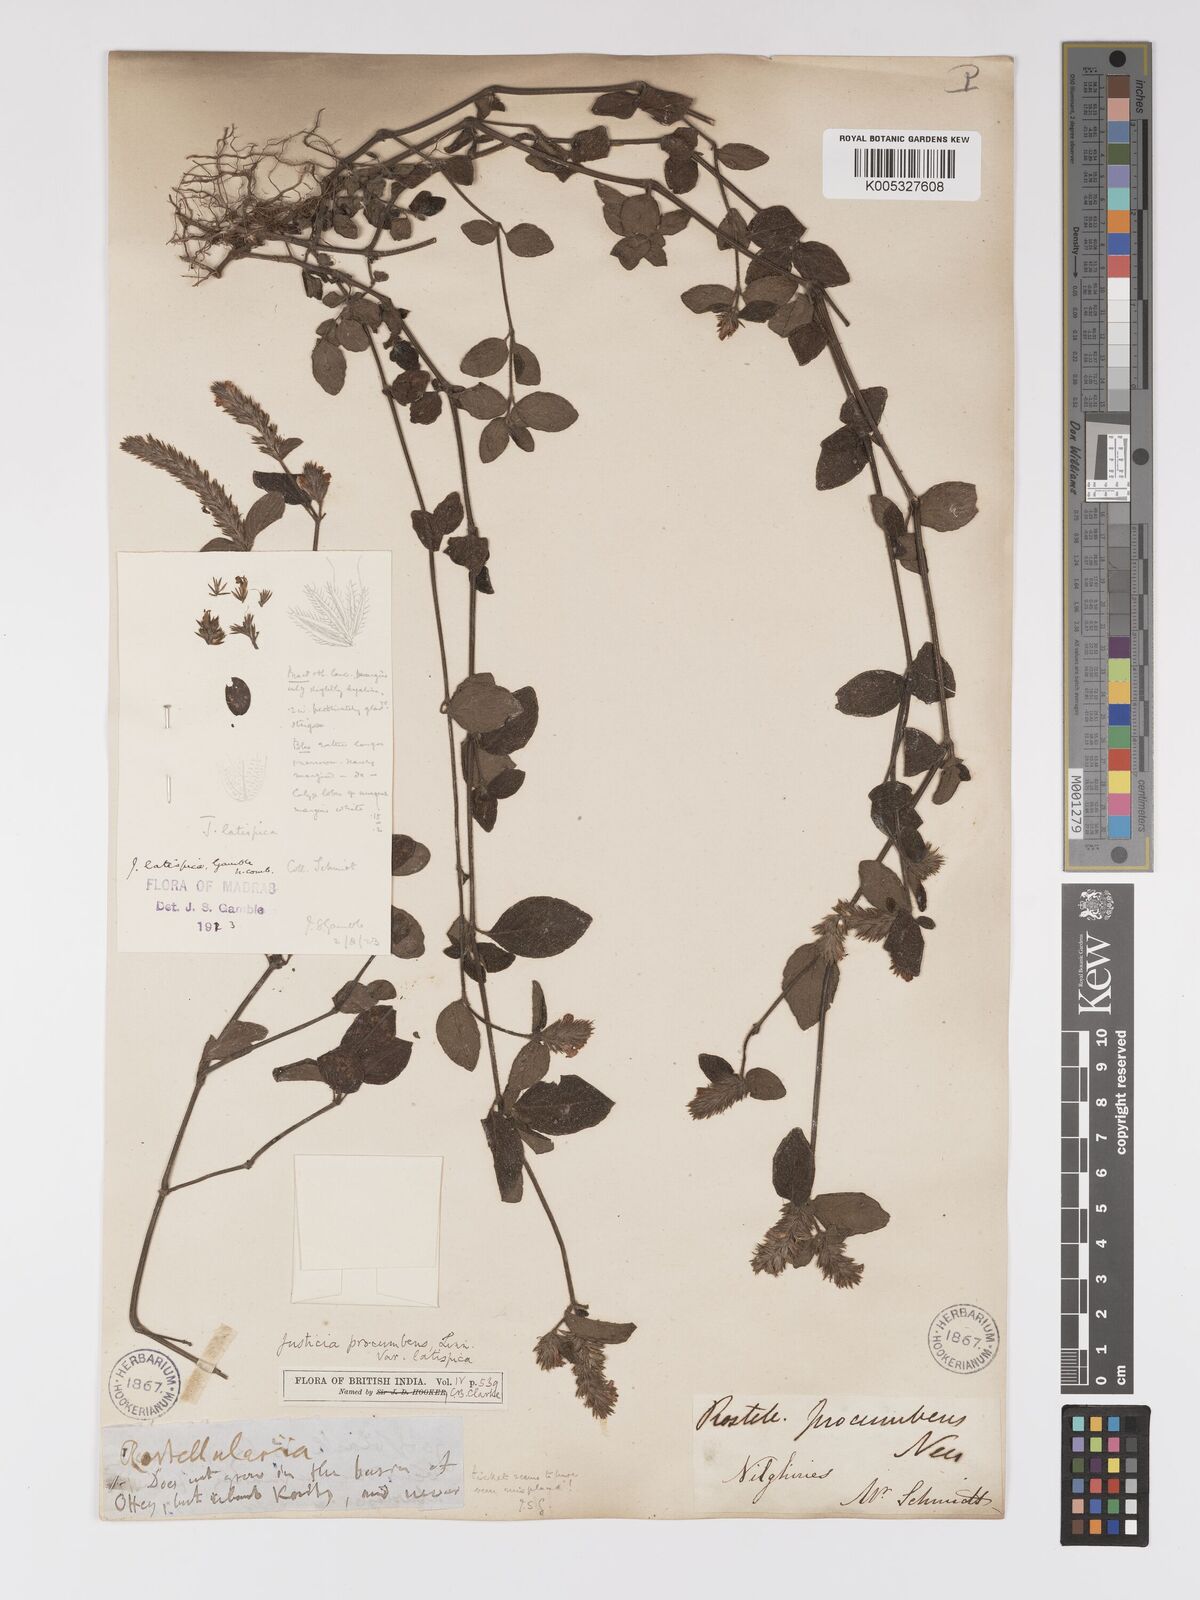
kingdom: Plantae
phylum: Tracheophyta
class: Magnoliopsida
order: Lamiales
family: Acanthaceae
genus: Rostellularia
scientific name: Rostellularia latispica
